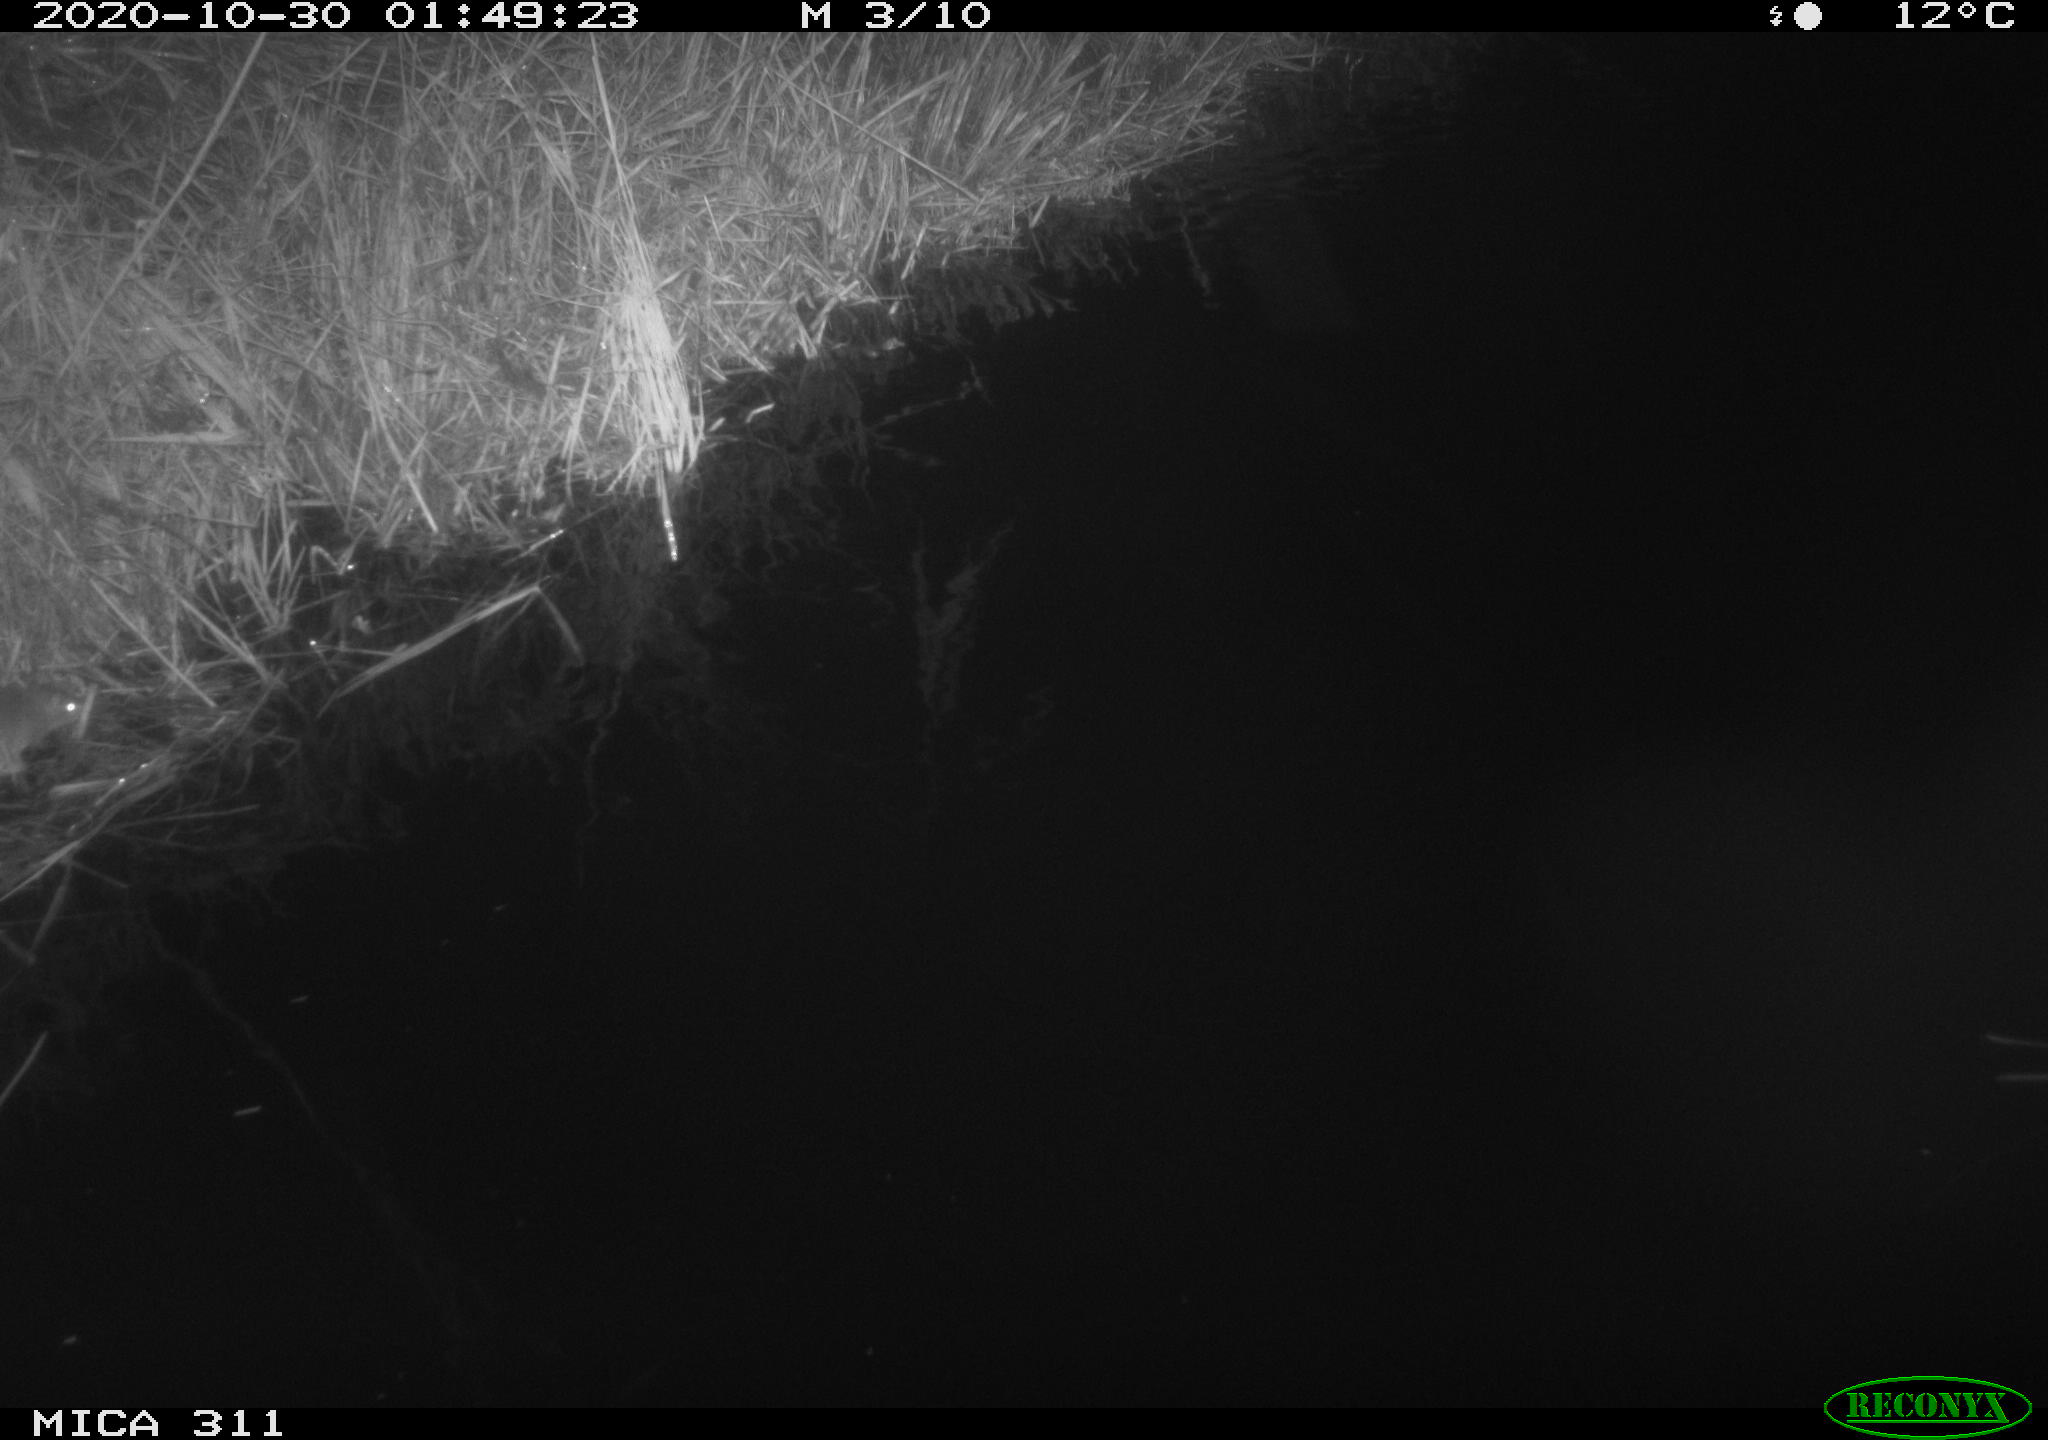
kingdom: Animalia
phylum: Chordata
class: Mammalia
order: Rodentia
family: Muridae
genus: Rattus
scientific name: Rattus norvegicus
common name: Brown rat
